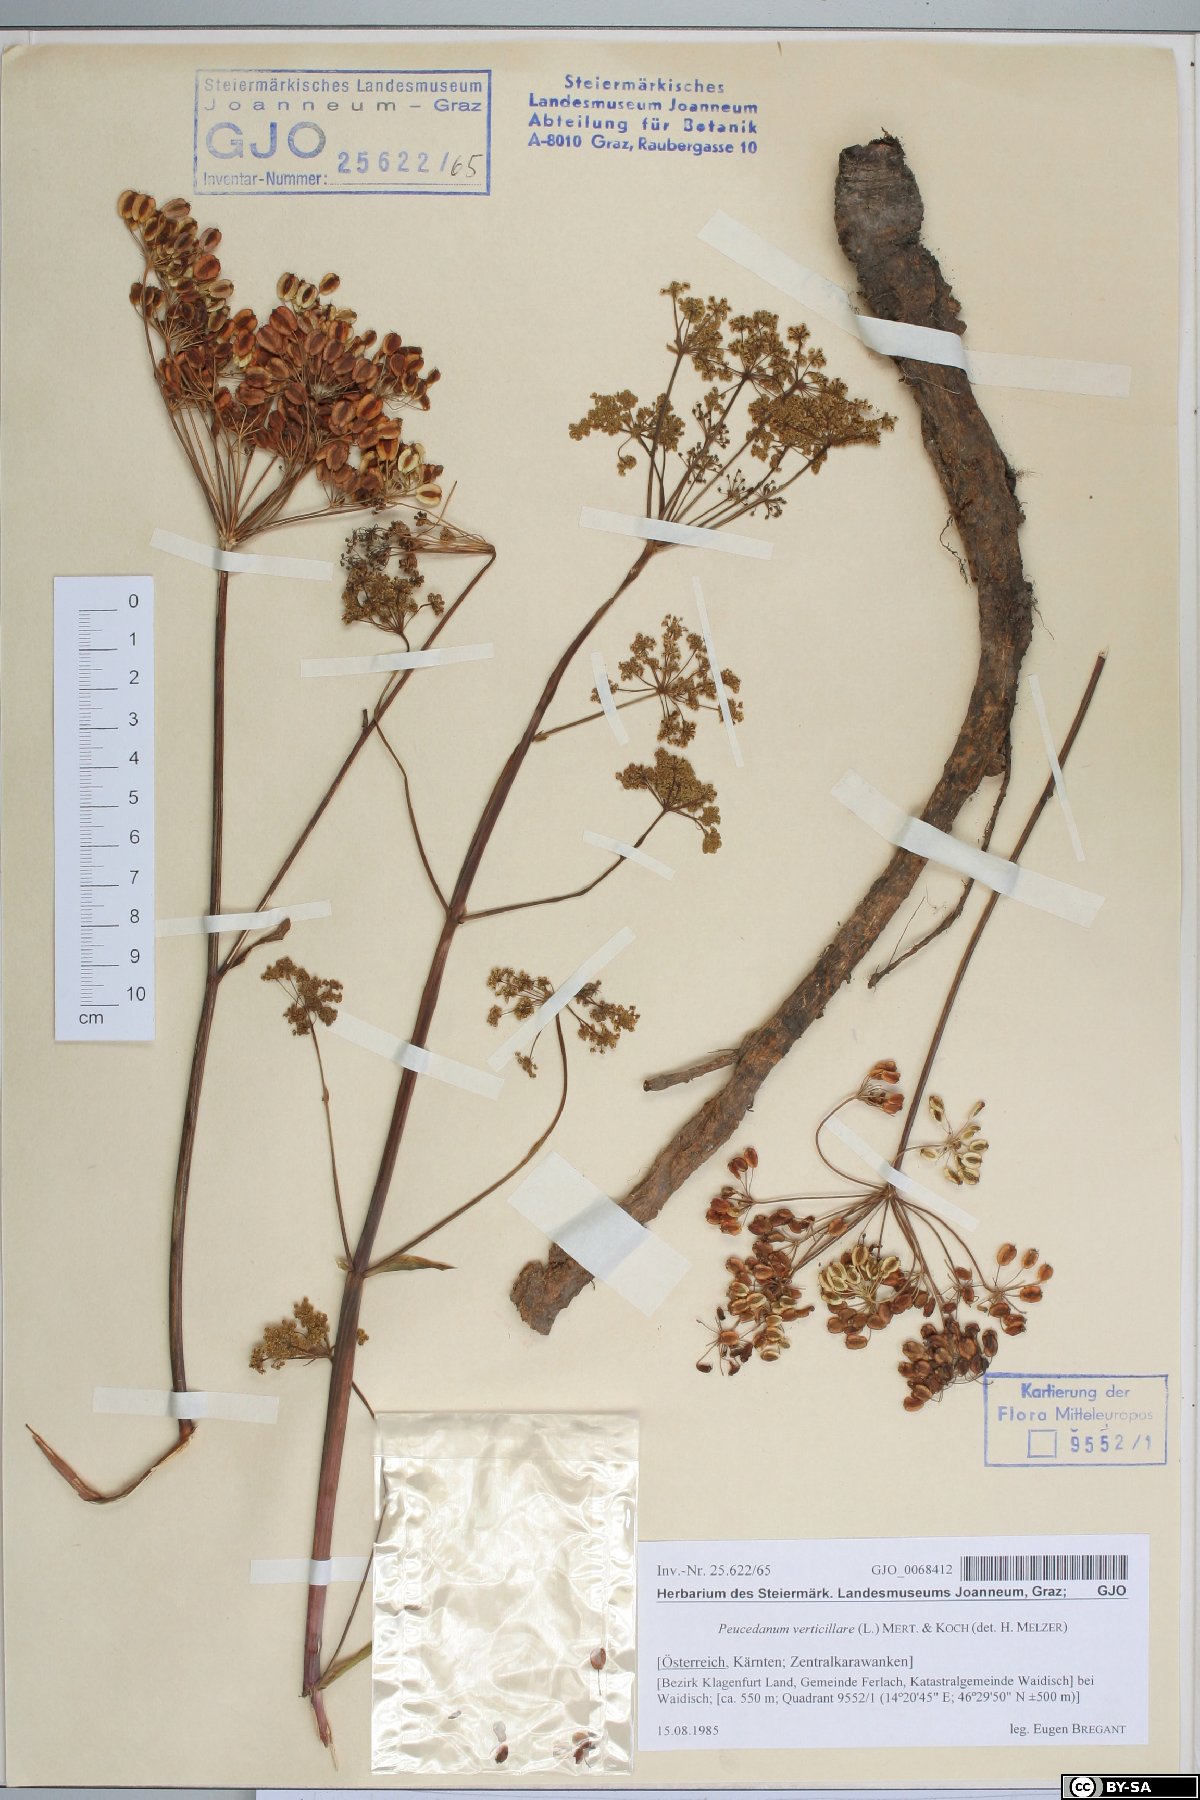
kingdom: Plantae
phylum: Tracheophyta
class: Magnoliopsida
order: Apiales
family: Apiaceae
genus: Tommasinia
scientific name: Tommasinia altissima
